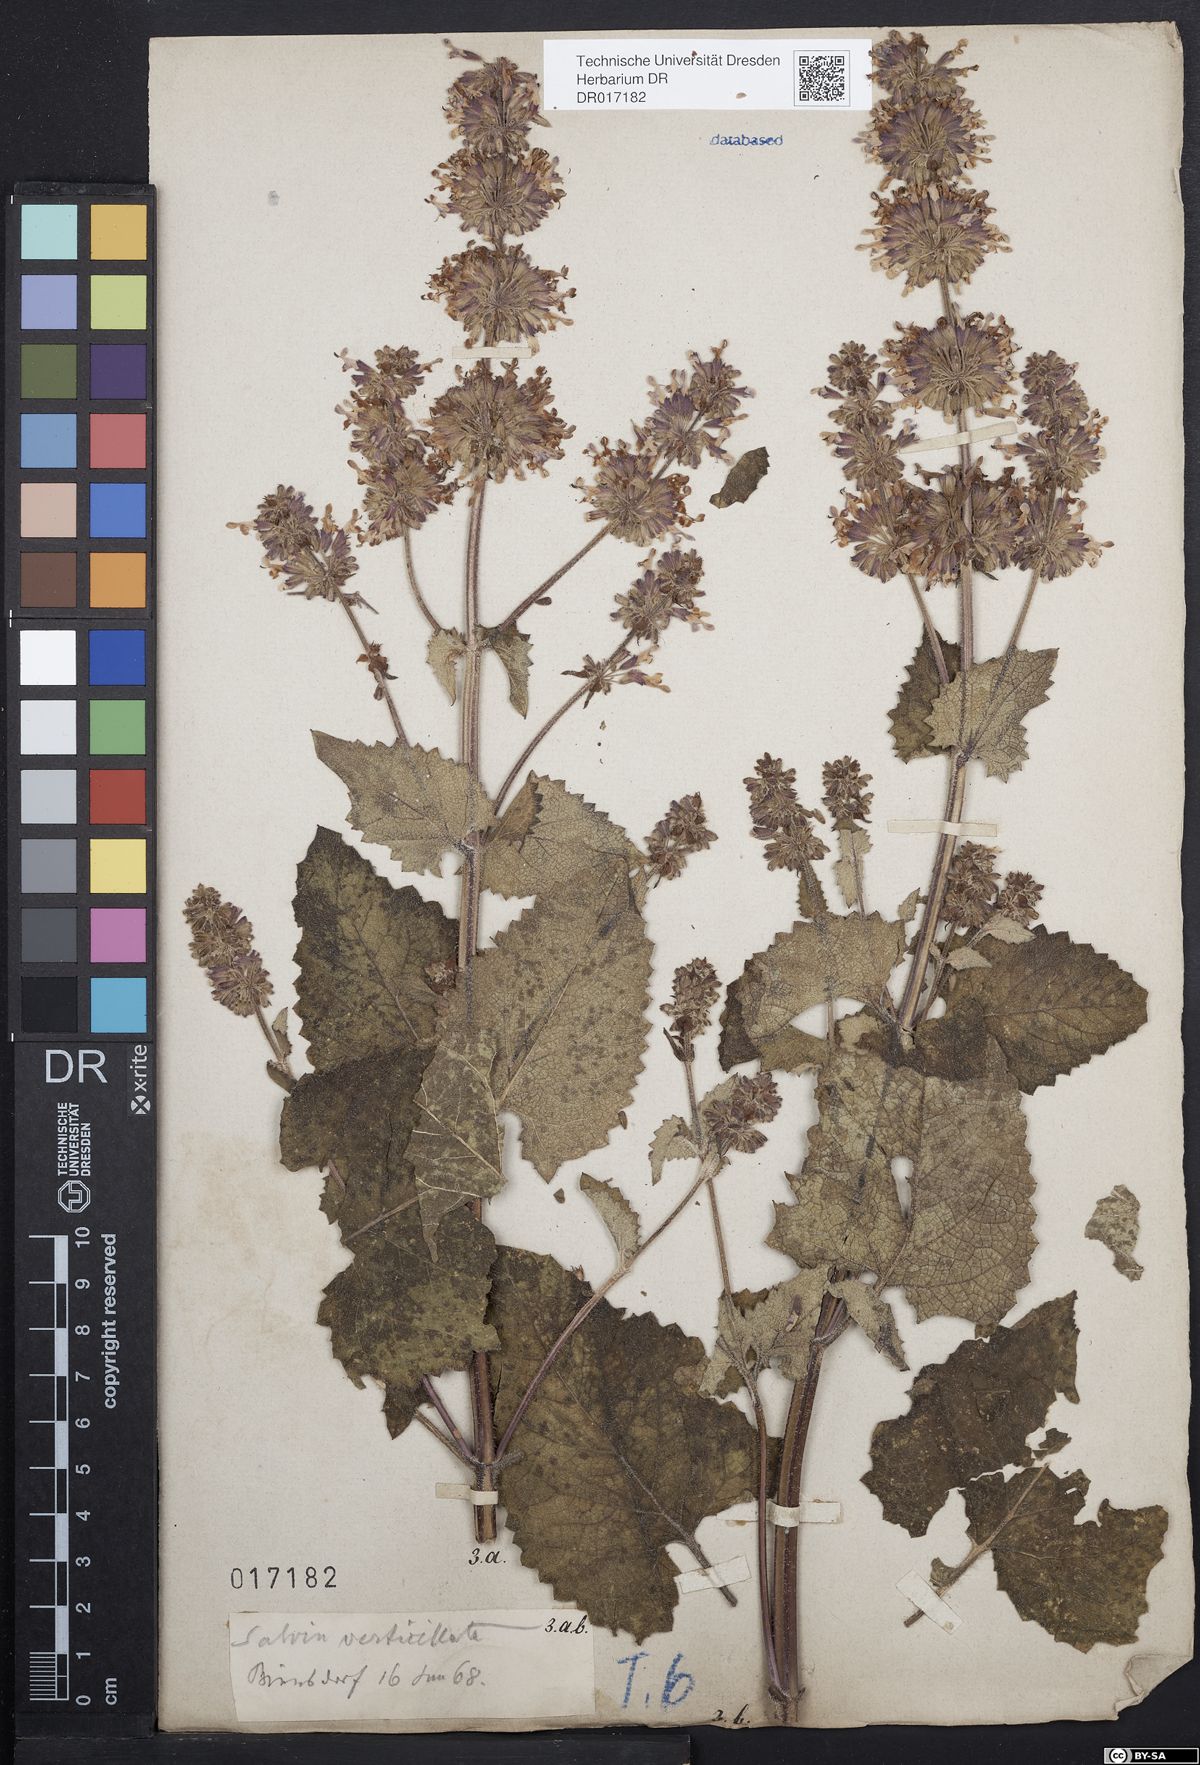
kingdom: Plantae
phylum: Tracheophyta
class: Magnoliopsida
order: Lamiales
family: Lamiaceae
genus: Salvia
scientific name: Salvia verticillata
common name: Whorled clary
